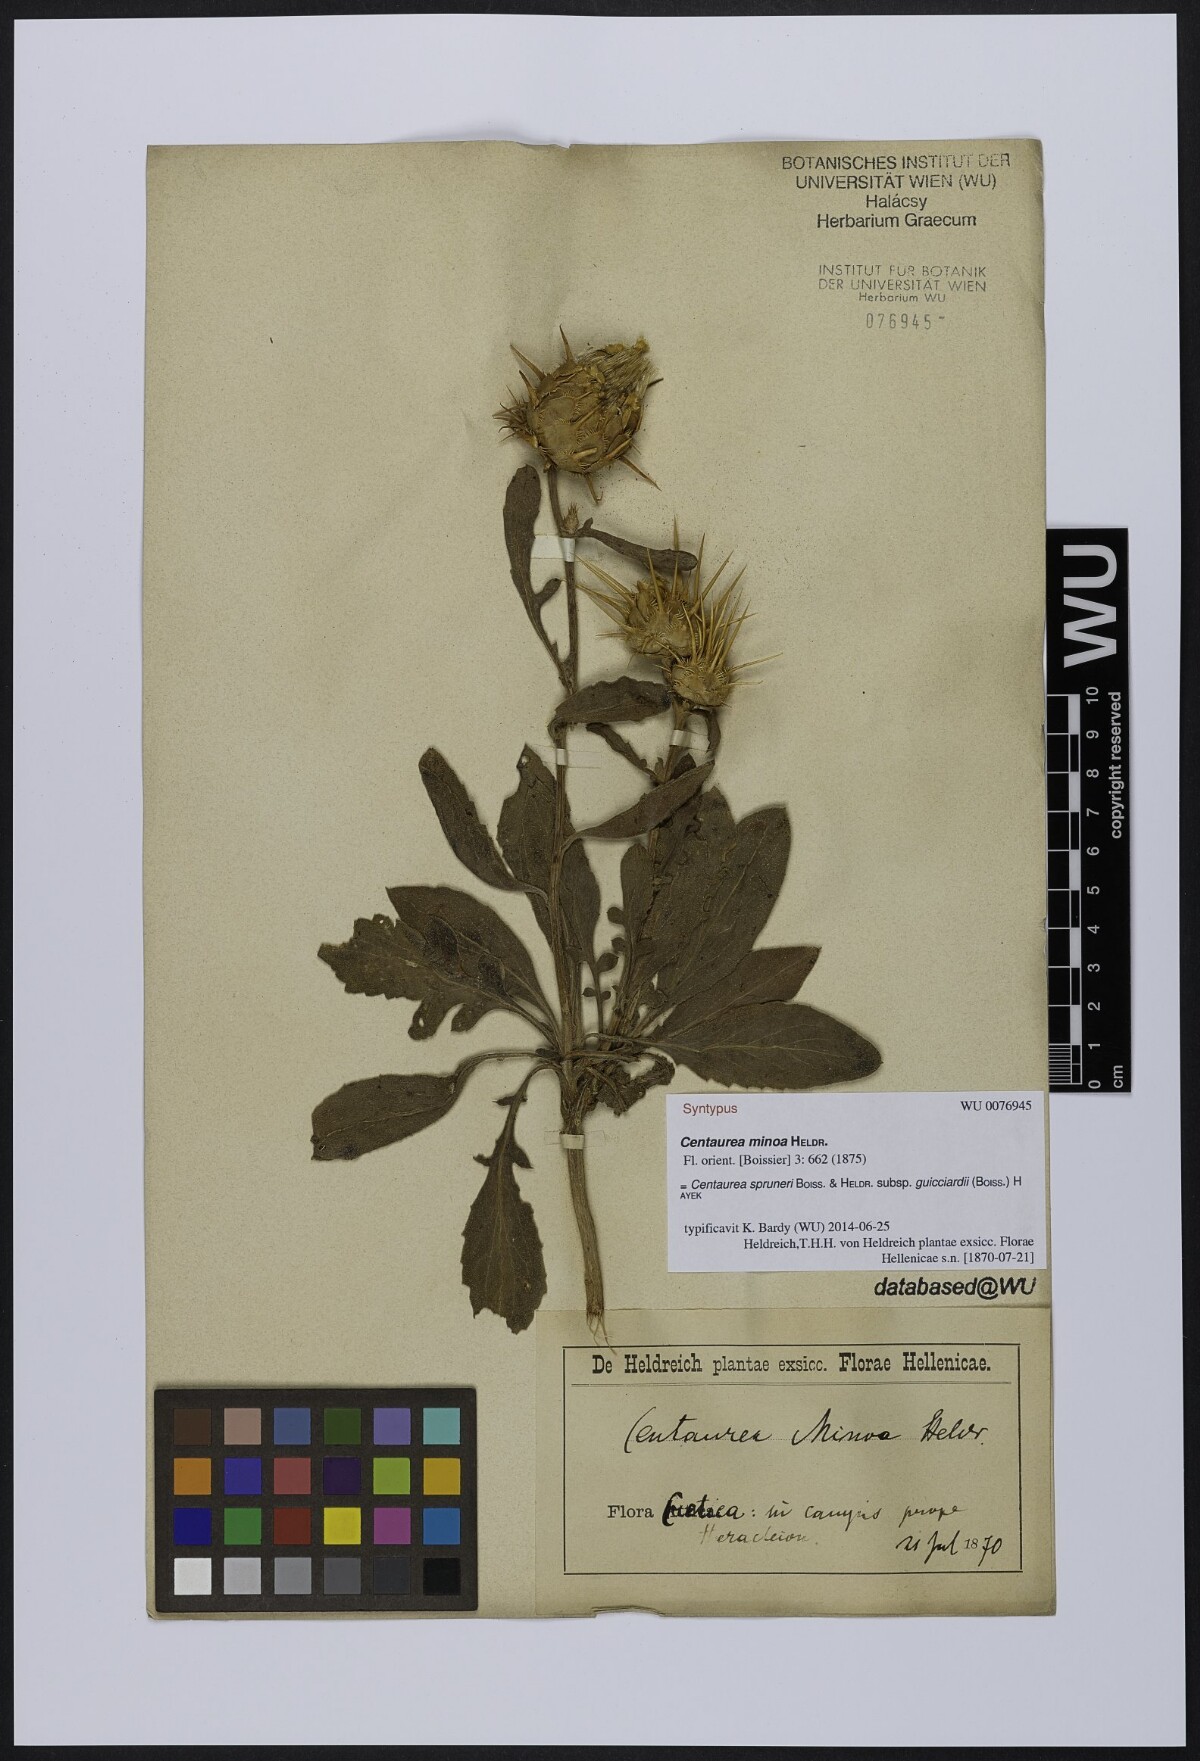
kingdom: Plantae
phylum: Tracheophyta
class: Magnoliopsida
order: Asterales
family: Asteraceae
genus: Centaurea
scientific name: Centaurea spruneri
